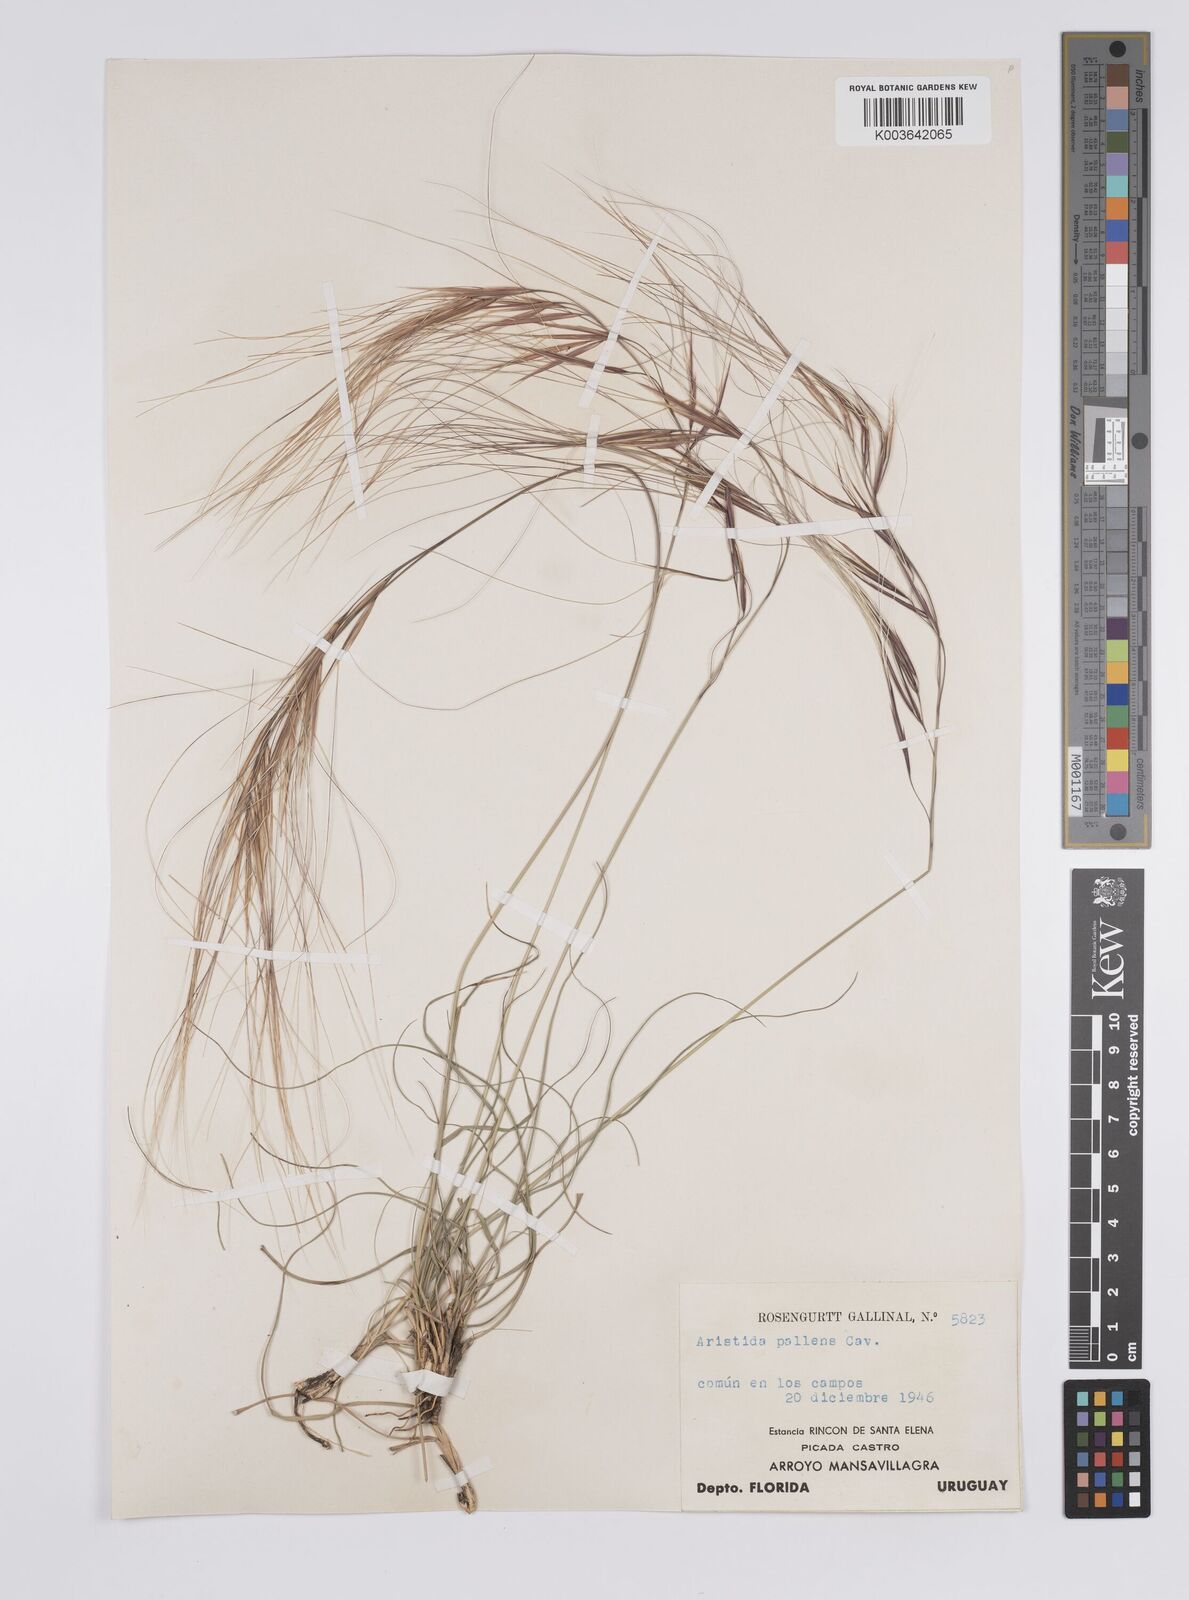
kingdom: Plantae
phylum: Tracheophyta
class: Liliopsida
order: Poales
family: Poaceae
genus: Aristida
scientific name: Aristida pallens
